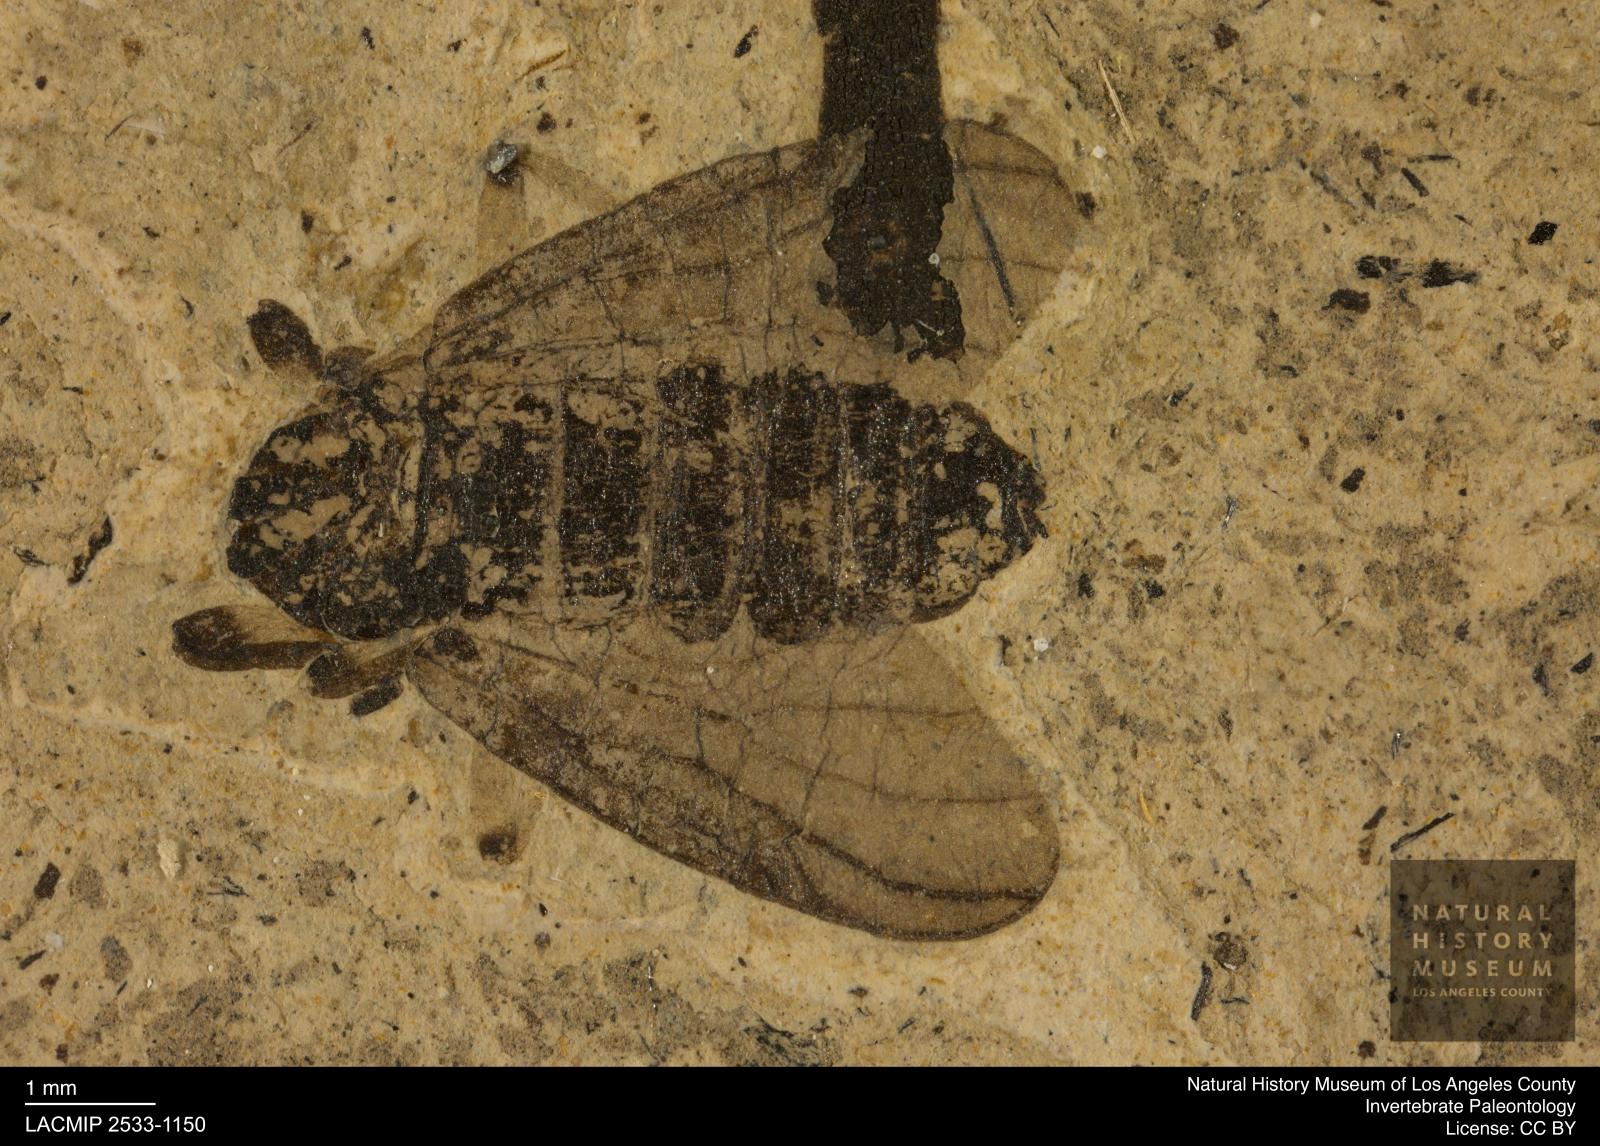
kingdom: Animalia
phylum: Arthropoda
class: Insecta
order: Diptera
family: Bibionidae
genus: Plecia
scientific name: Plecia pinguis
